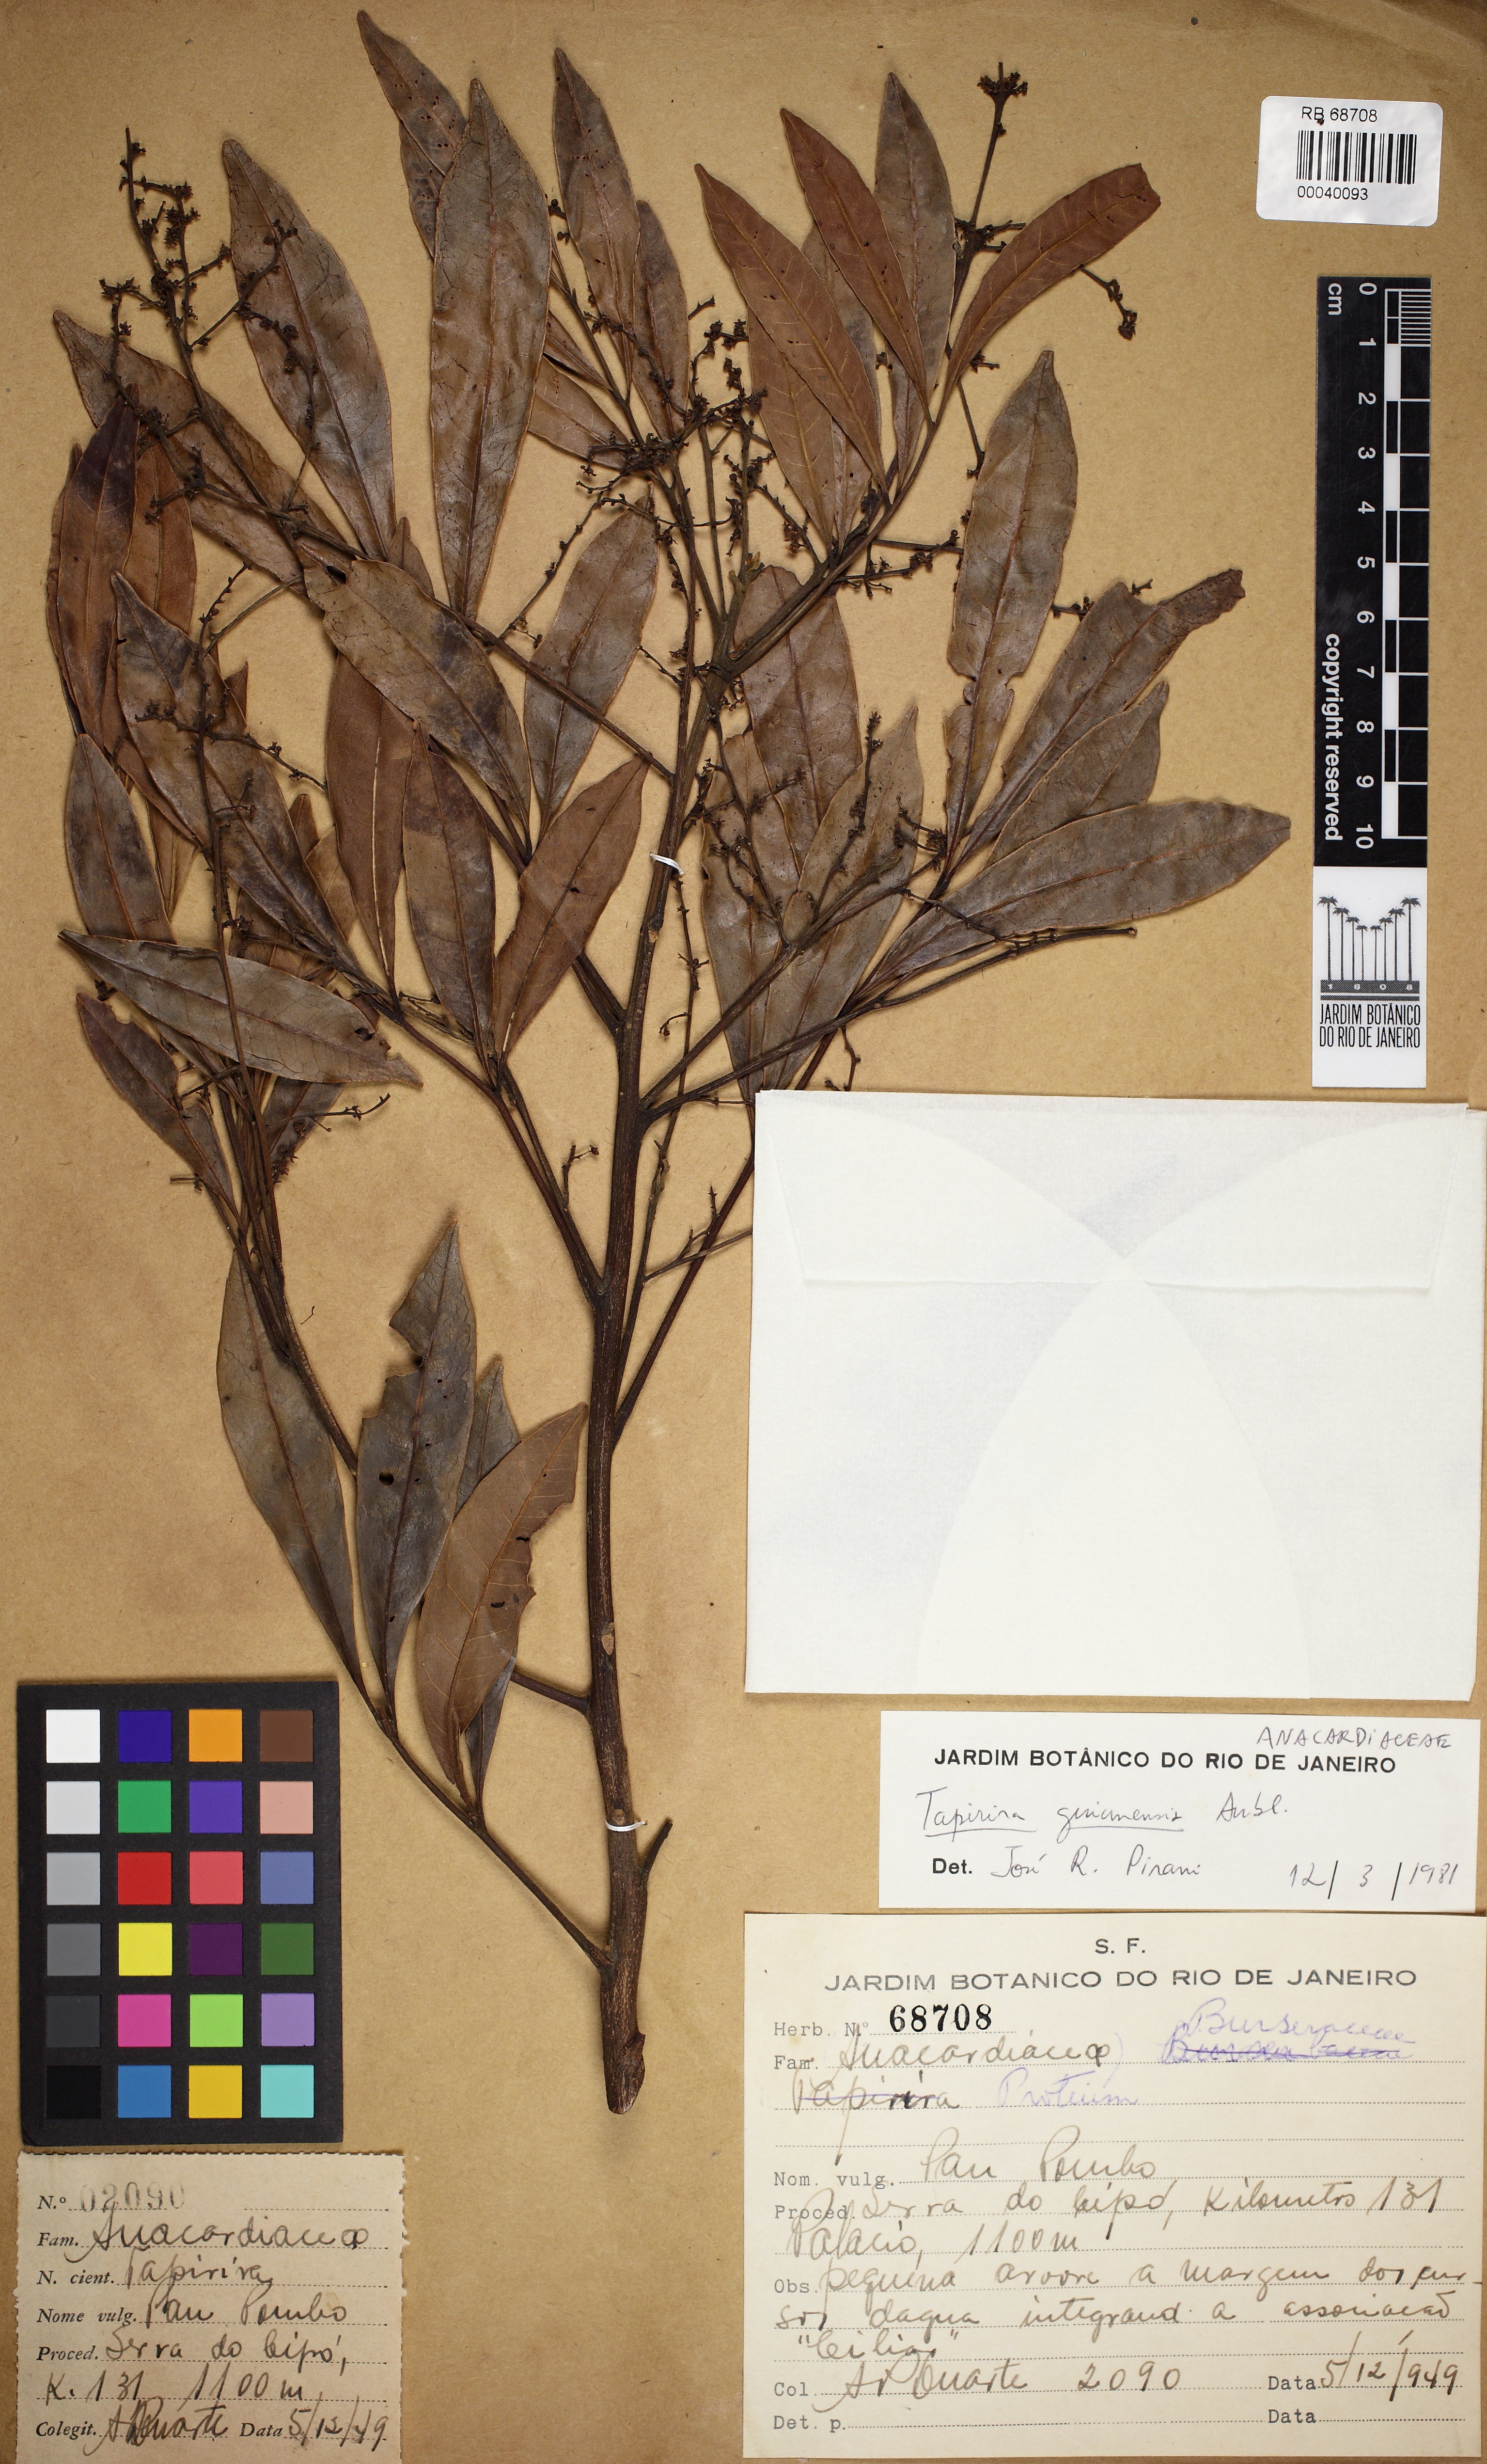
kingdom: Plantae
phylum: Tracheophyta
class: Magnoliopsida
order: Sapindales
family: Anacardiaceae
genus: Tapirira
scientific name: Tapirira guianensis
